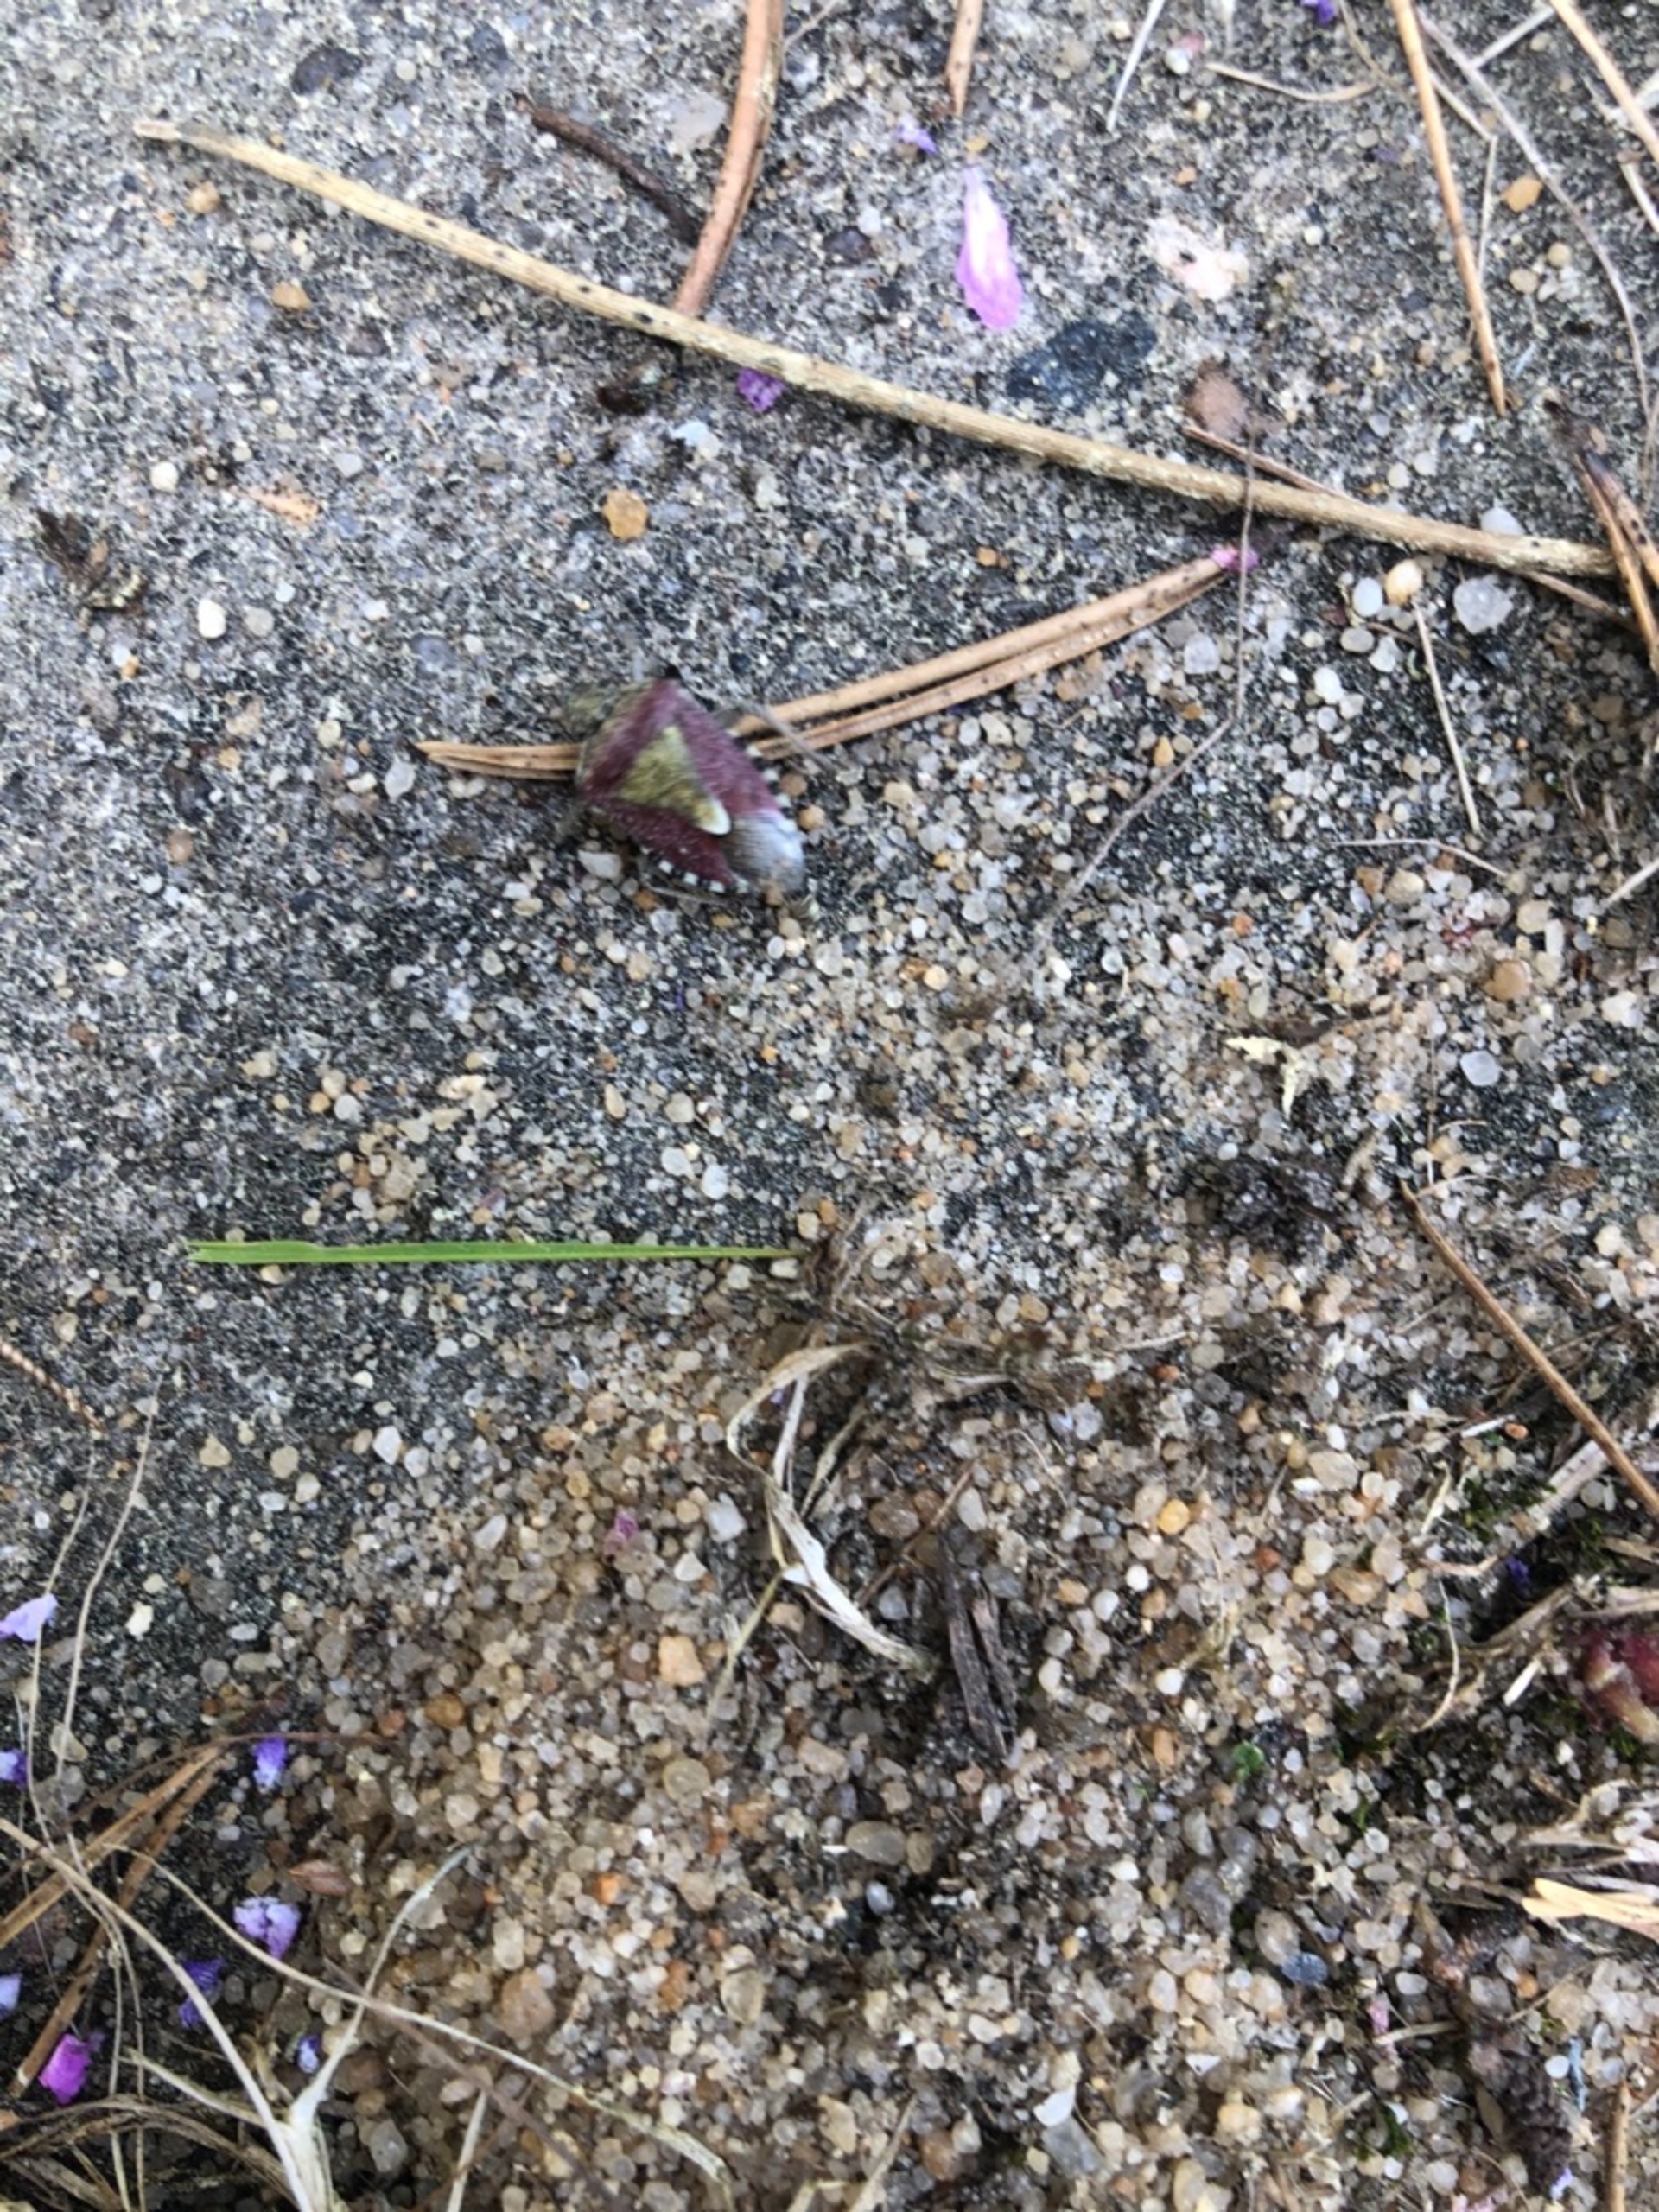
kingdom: Animalia
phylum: Arthropoda
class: Insecta
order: Hemiptera
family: Pentatomidae
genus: Dolycoris
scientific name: Dolycoris baccarum
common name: Almindelig bærtæge
